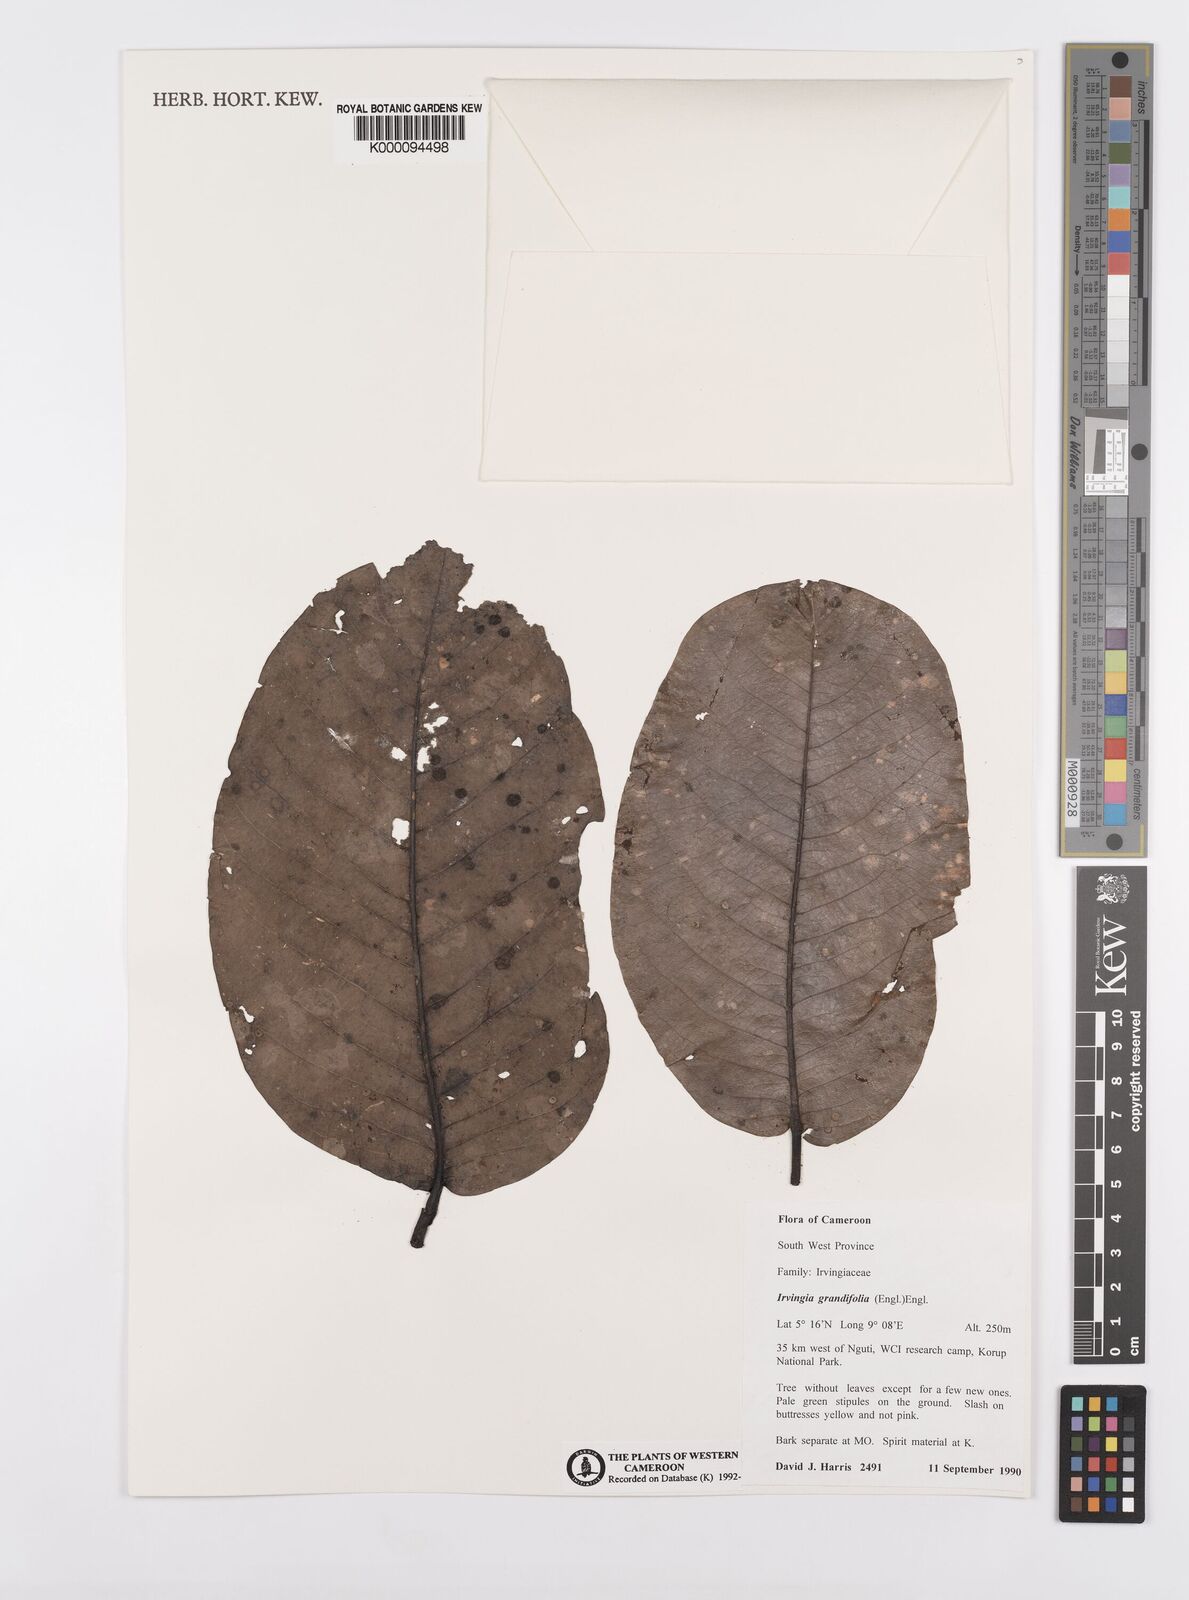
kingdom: Plantae
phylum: Tracheophyta
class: Magnoliopsida
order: Malpighiales
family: Irvingiaceae
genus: Irvingia
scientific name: Irvingia grandifolia
